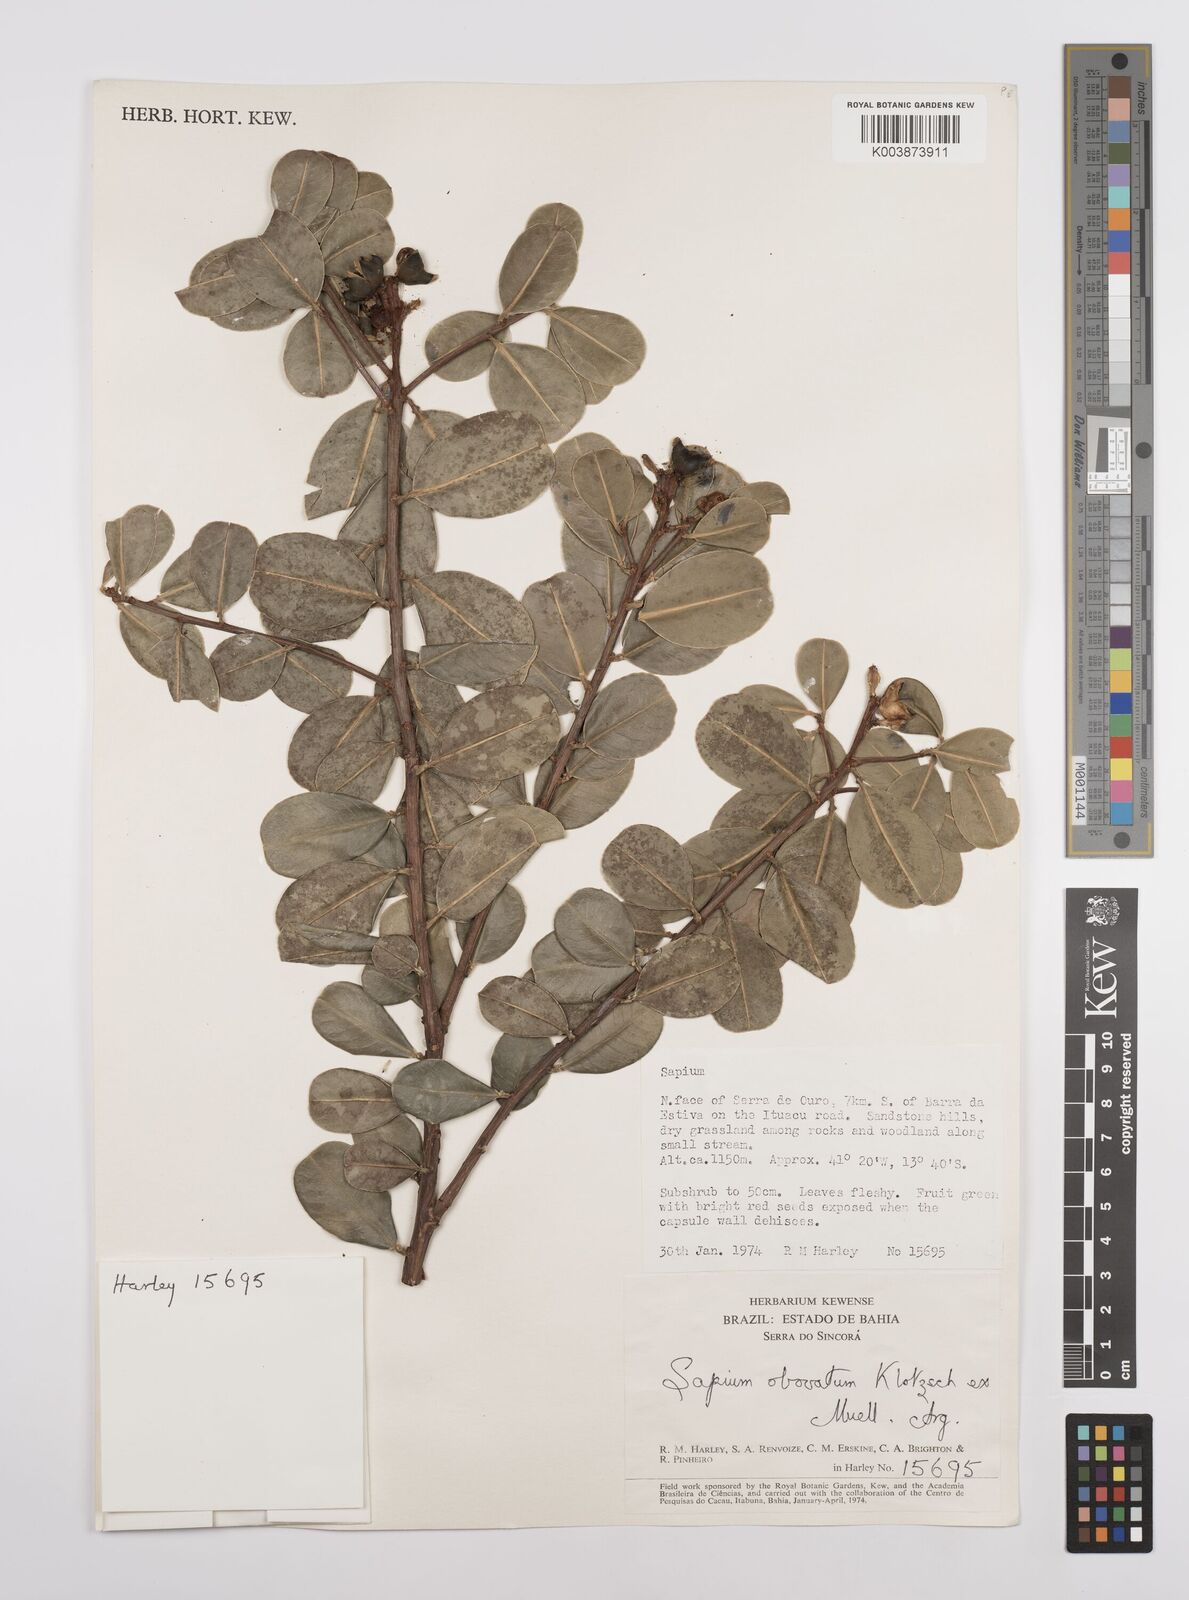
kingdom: Plantae
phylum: Tracheophyta
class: Magnoliopsida
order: Malpighiales
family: Euphorbiaceae
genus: Sapium
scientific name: Sapium obovatum
